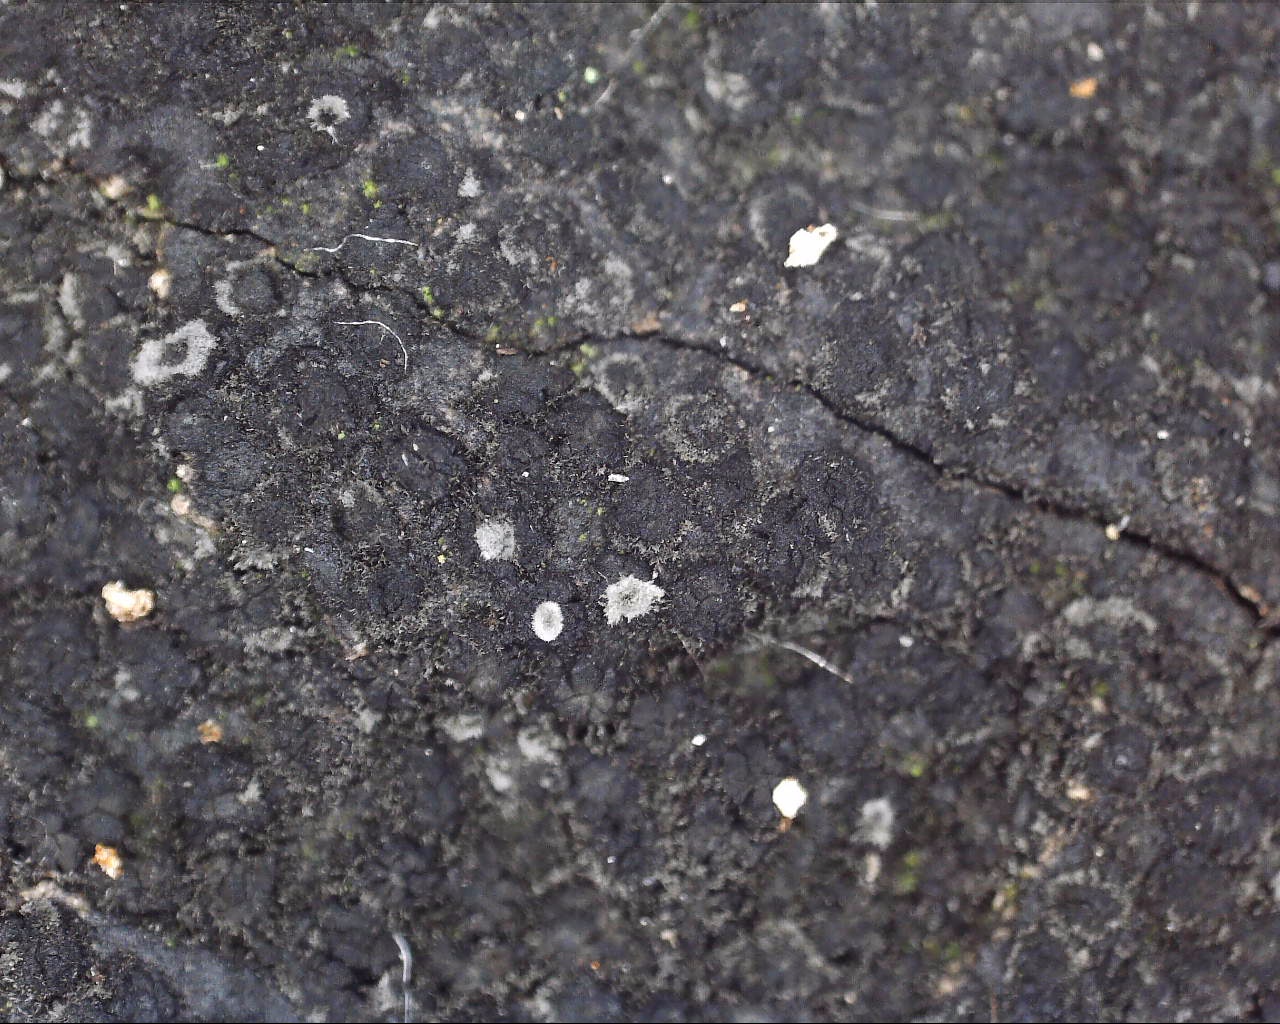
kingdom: Fungi
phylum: Ascomycota
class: Sordariomycetes
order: Xylariales
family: Diatrypaceae
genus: Eutypa
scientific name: Eutypa spinosa
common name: grov kulskorpe
